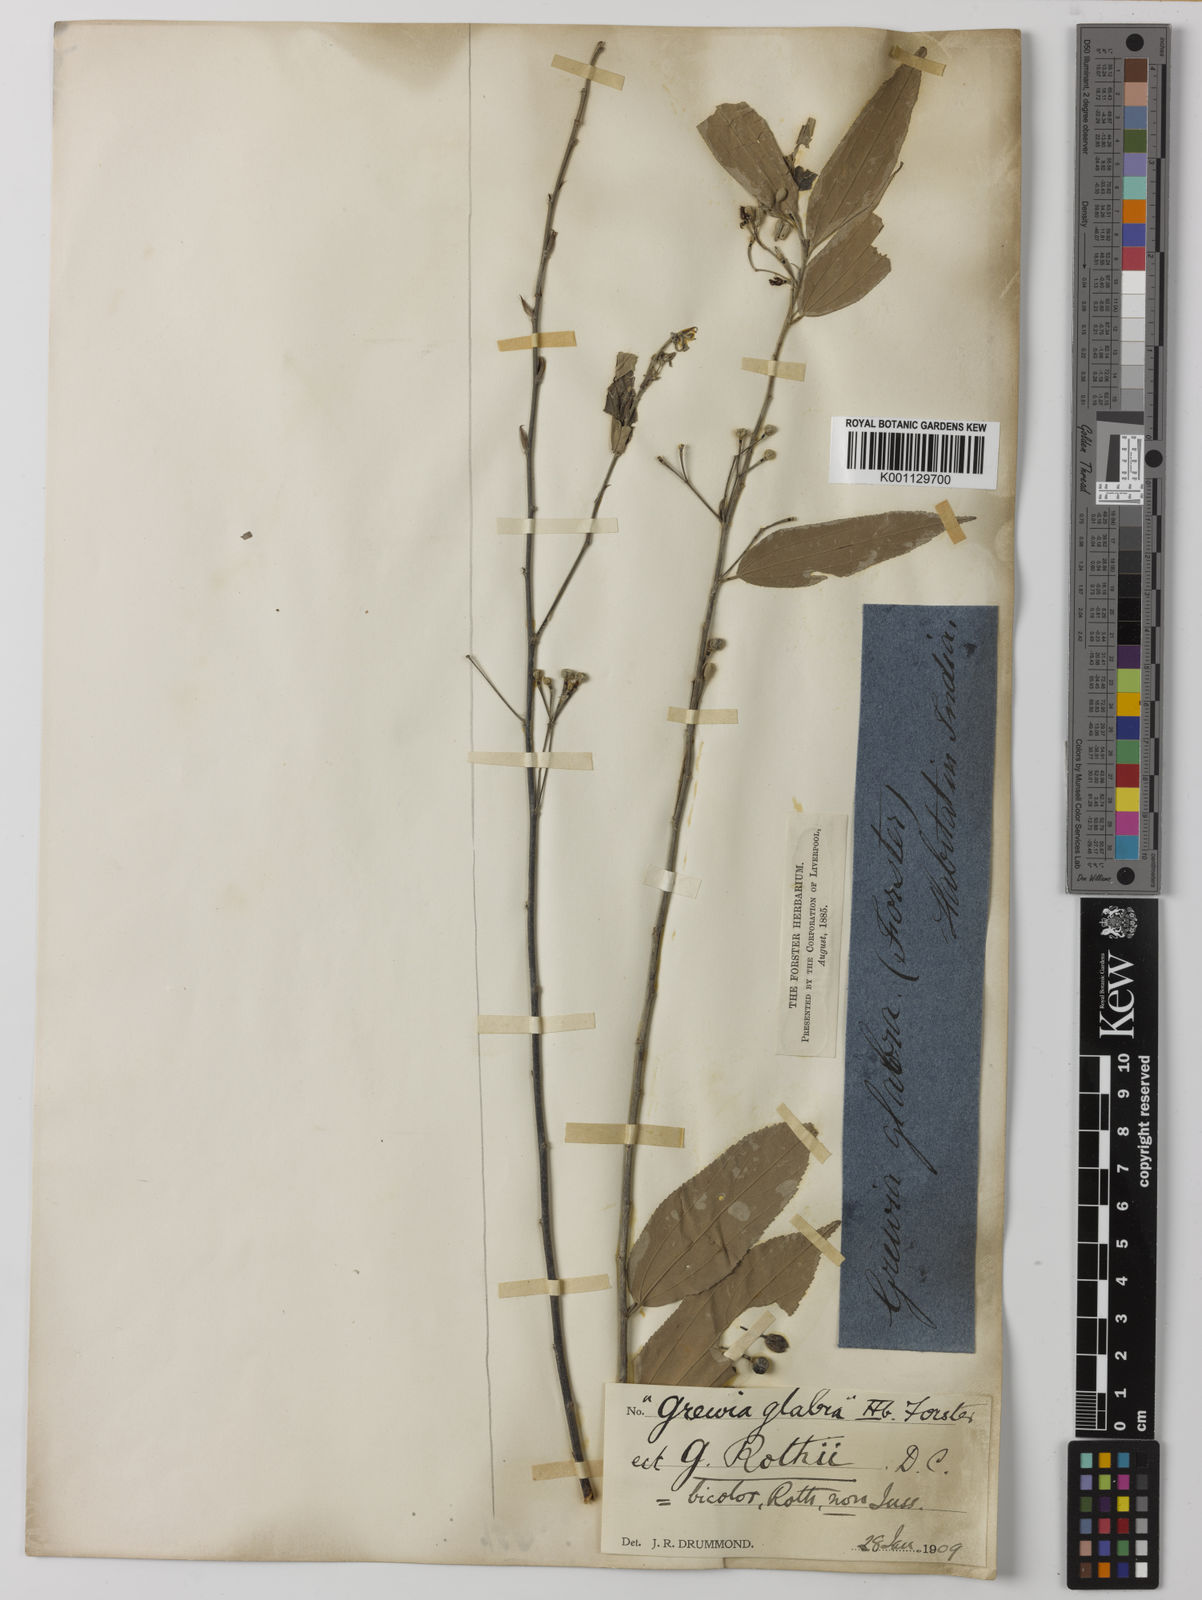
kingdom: Plantae
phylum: Tracheophyta
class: Magnoliopsida
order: Malvales
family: Malvaceae
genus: Grewia
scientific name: Grewia excelsa
